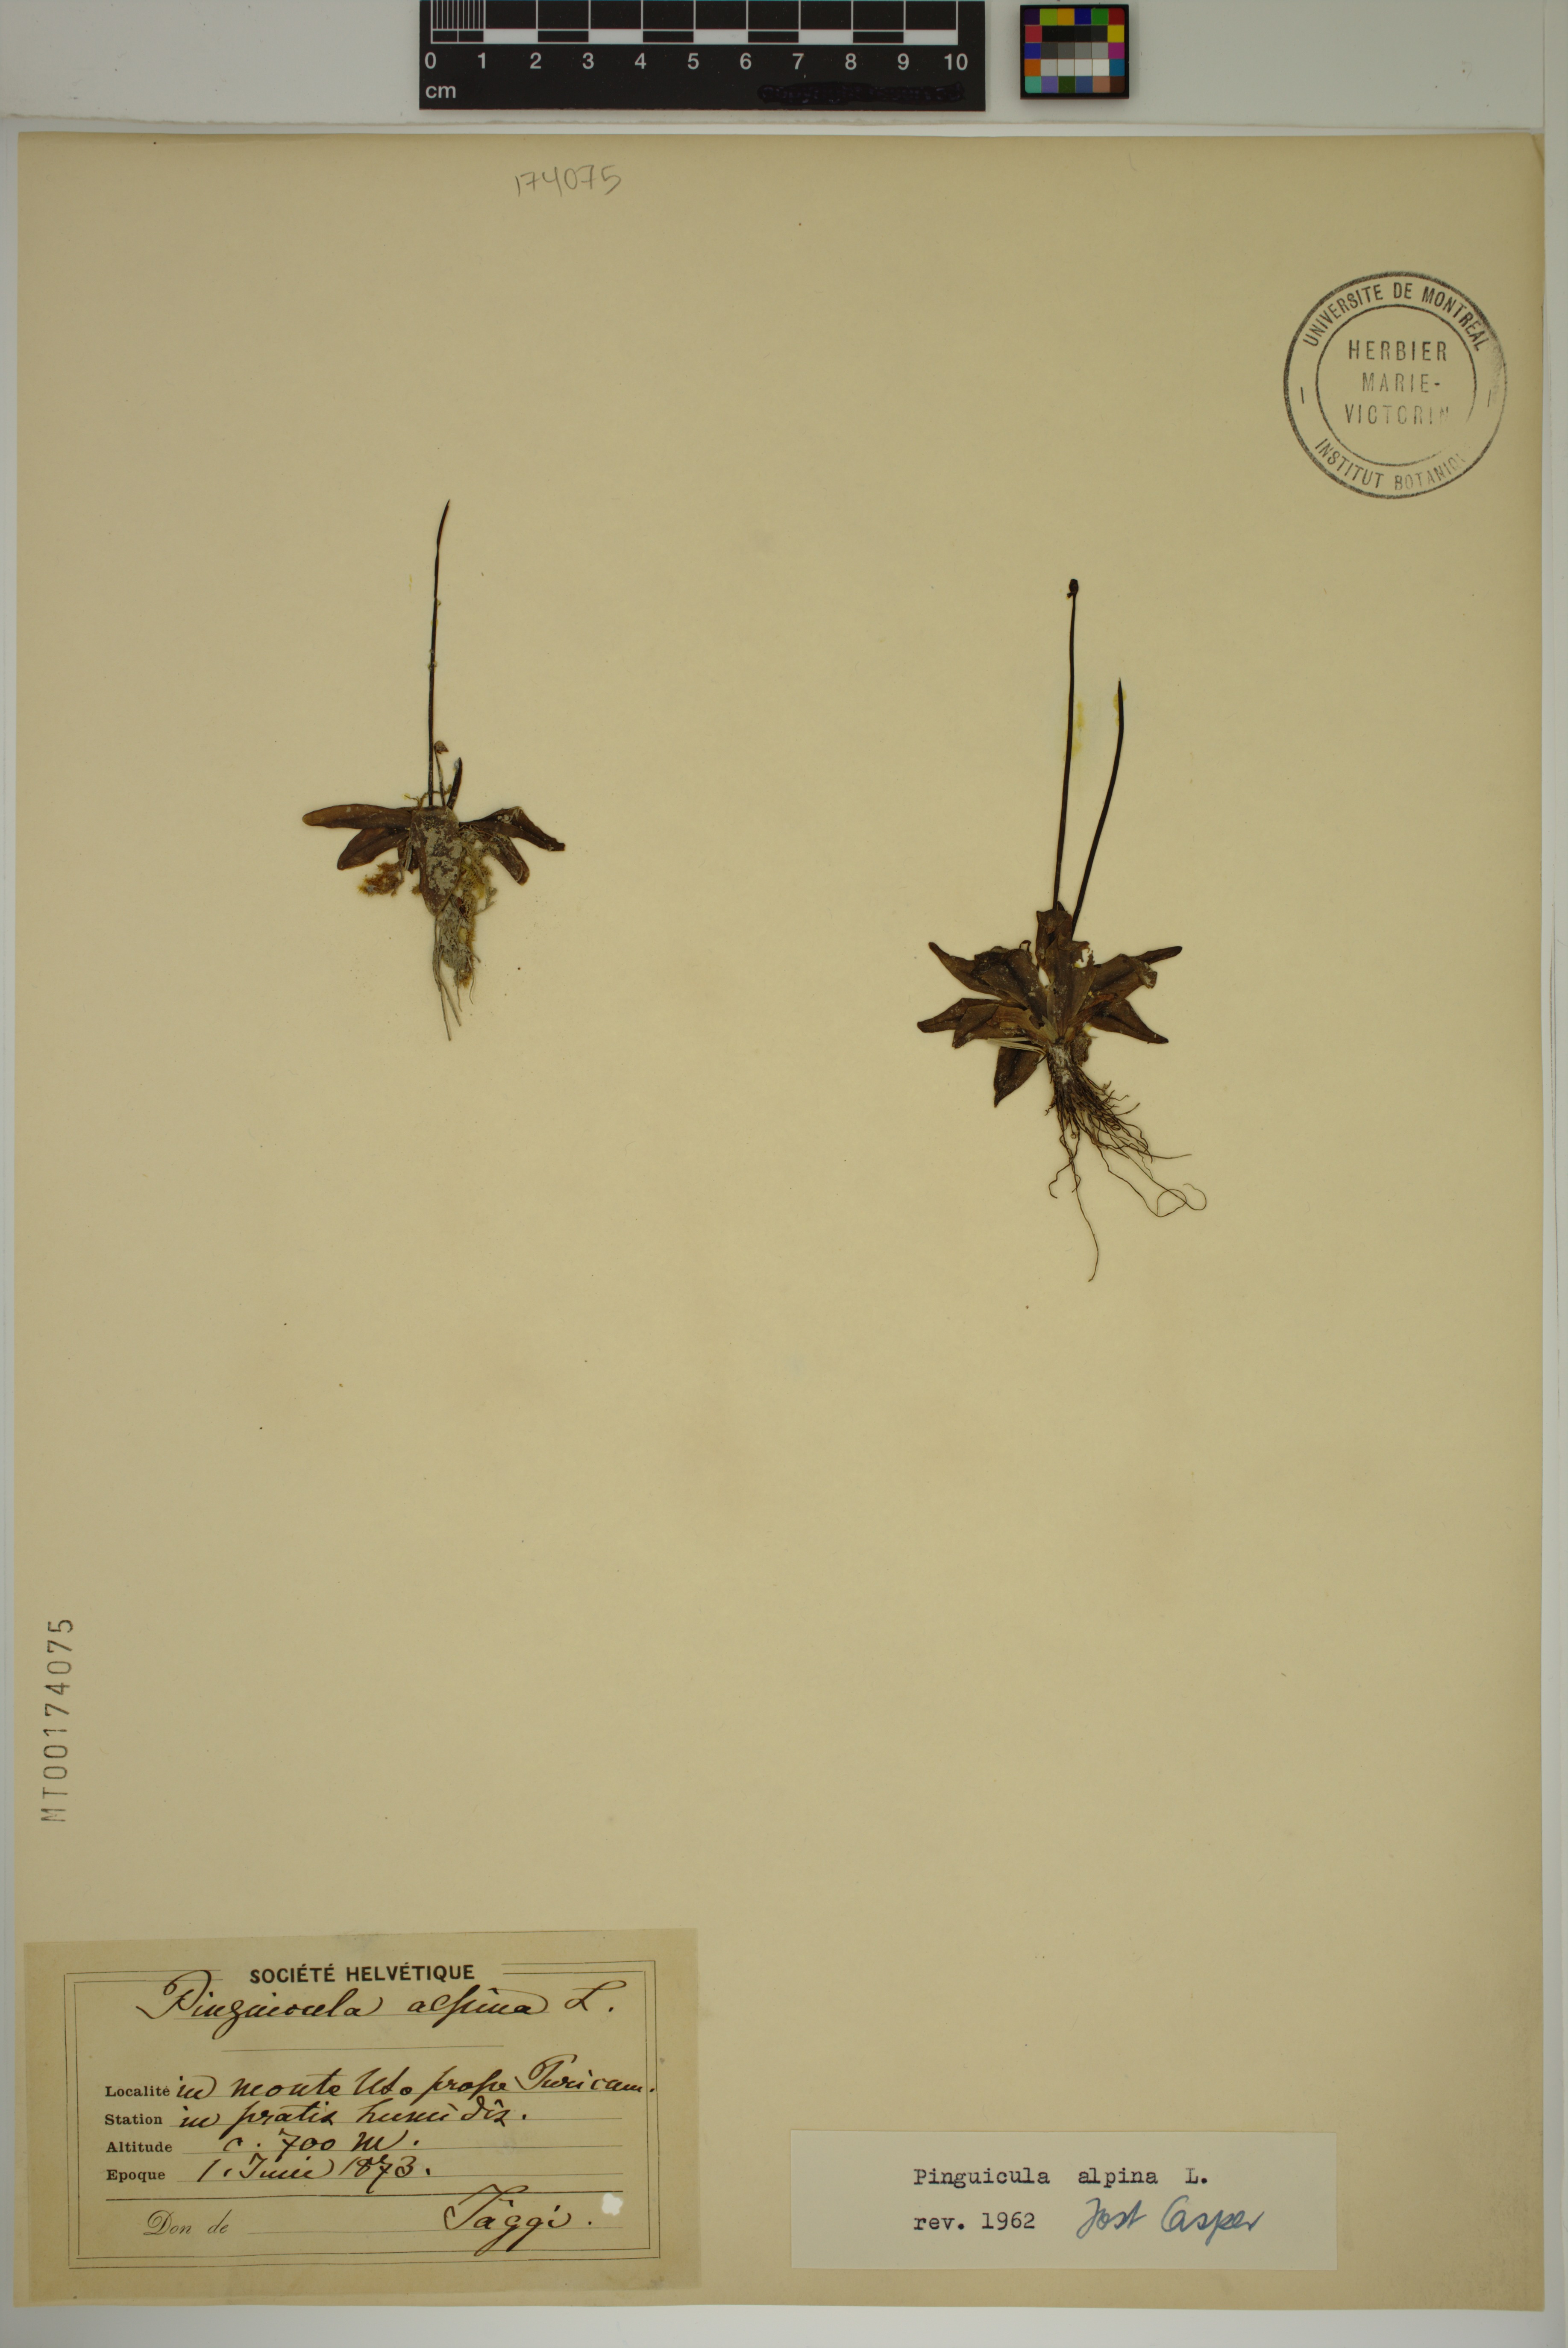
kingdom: Plantae
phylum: Tracheophyta
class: Magnoliopsida
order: Lamiales
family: Lentibulariaceae
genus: Pinguicula
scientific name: Pinguicula alpina
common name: Alpine butterwort
